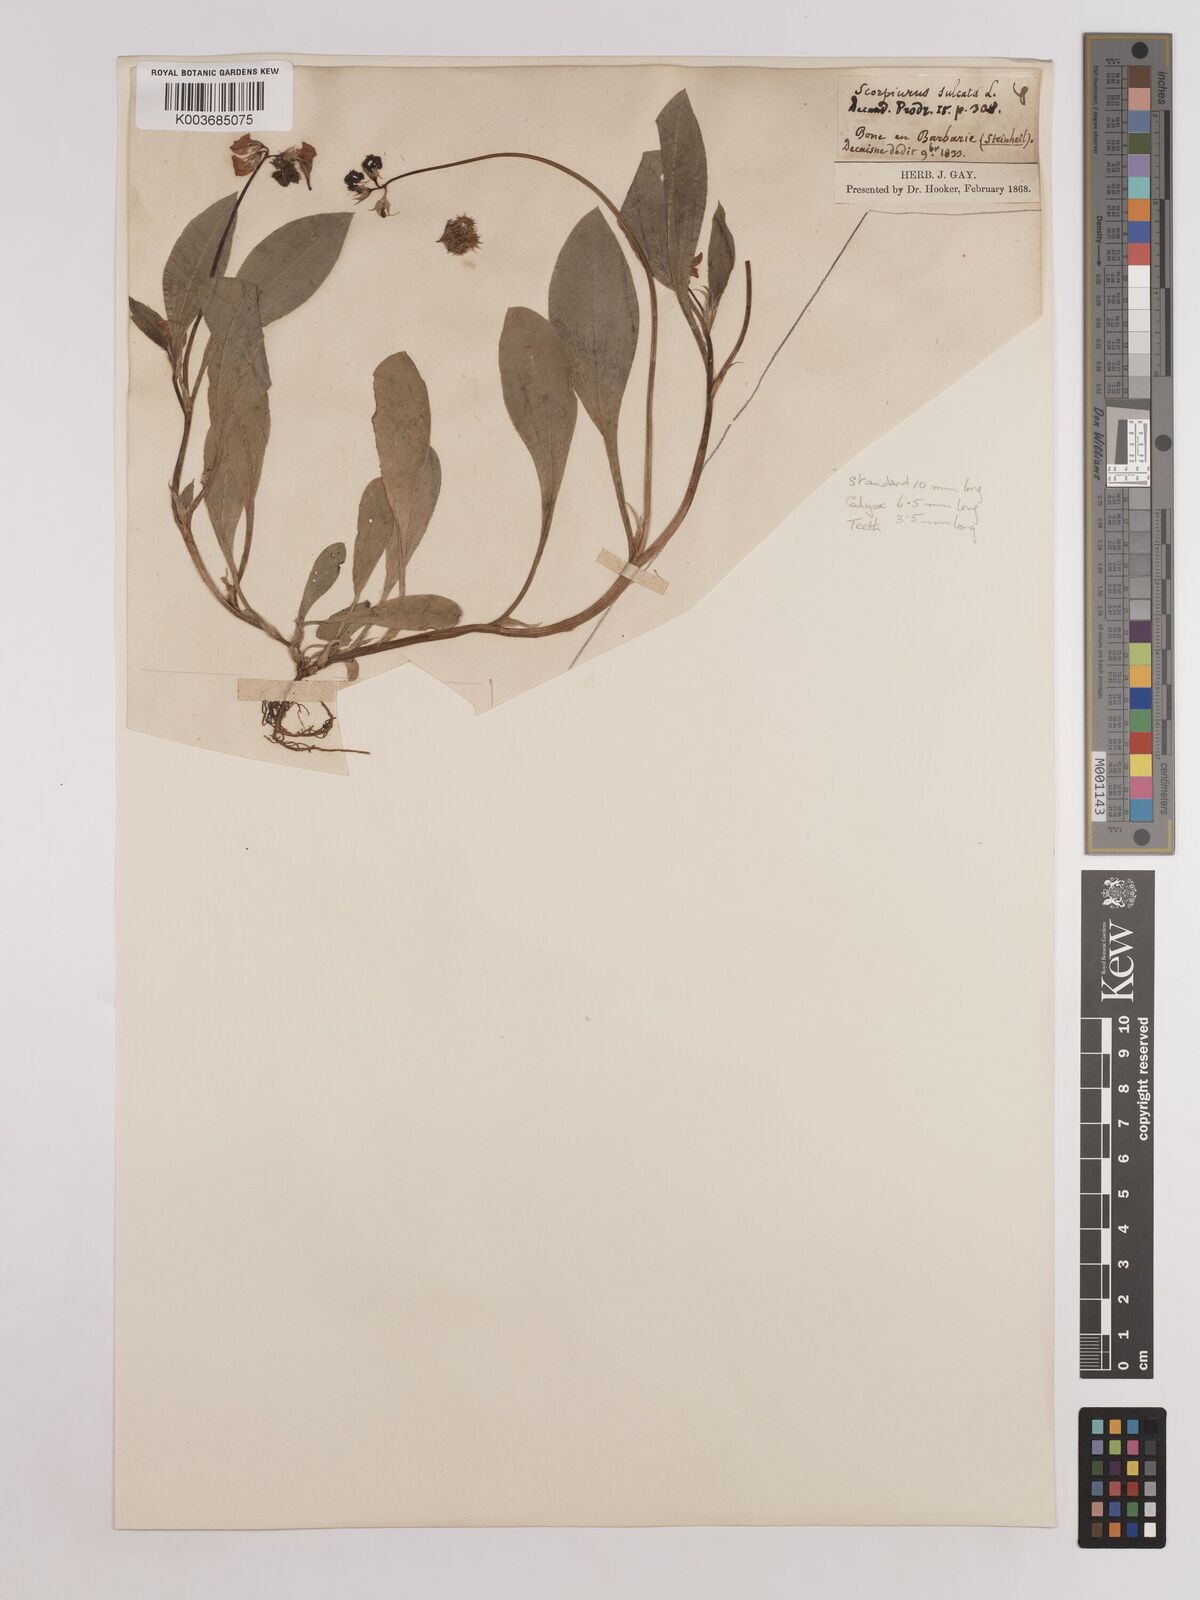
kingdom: Plantae
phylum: Tracheophyta
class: Magnoliopsida
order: Fabales
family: Fabaceae
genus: Scorpiurus
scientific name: Scorpiurus muricatus
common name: Caterpillar-plant
